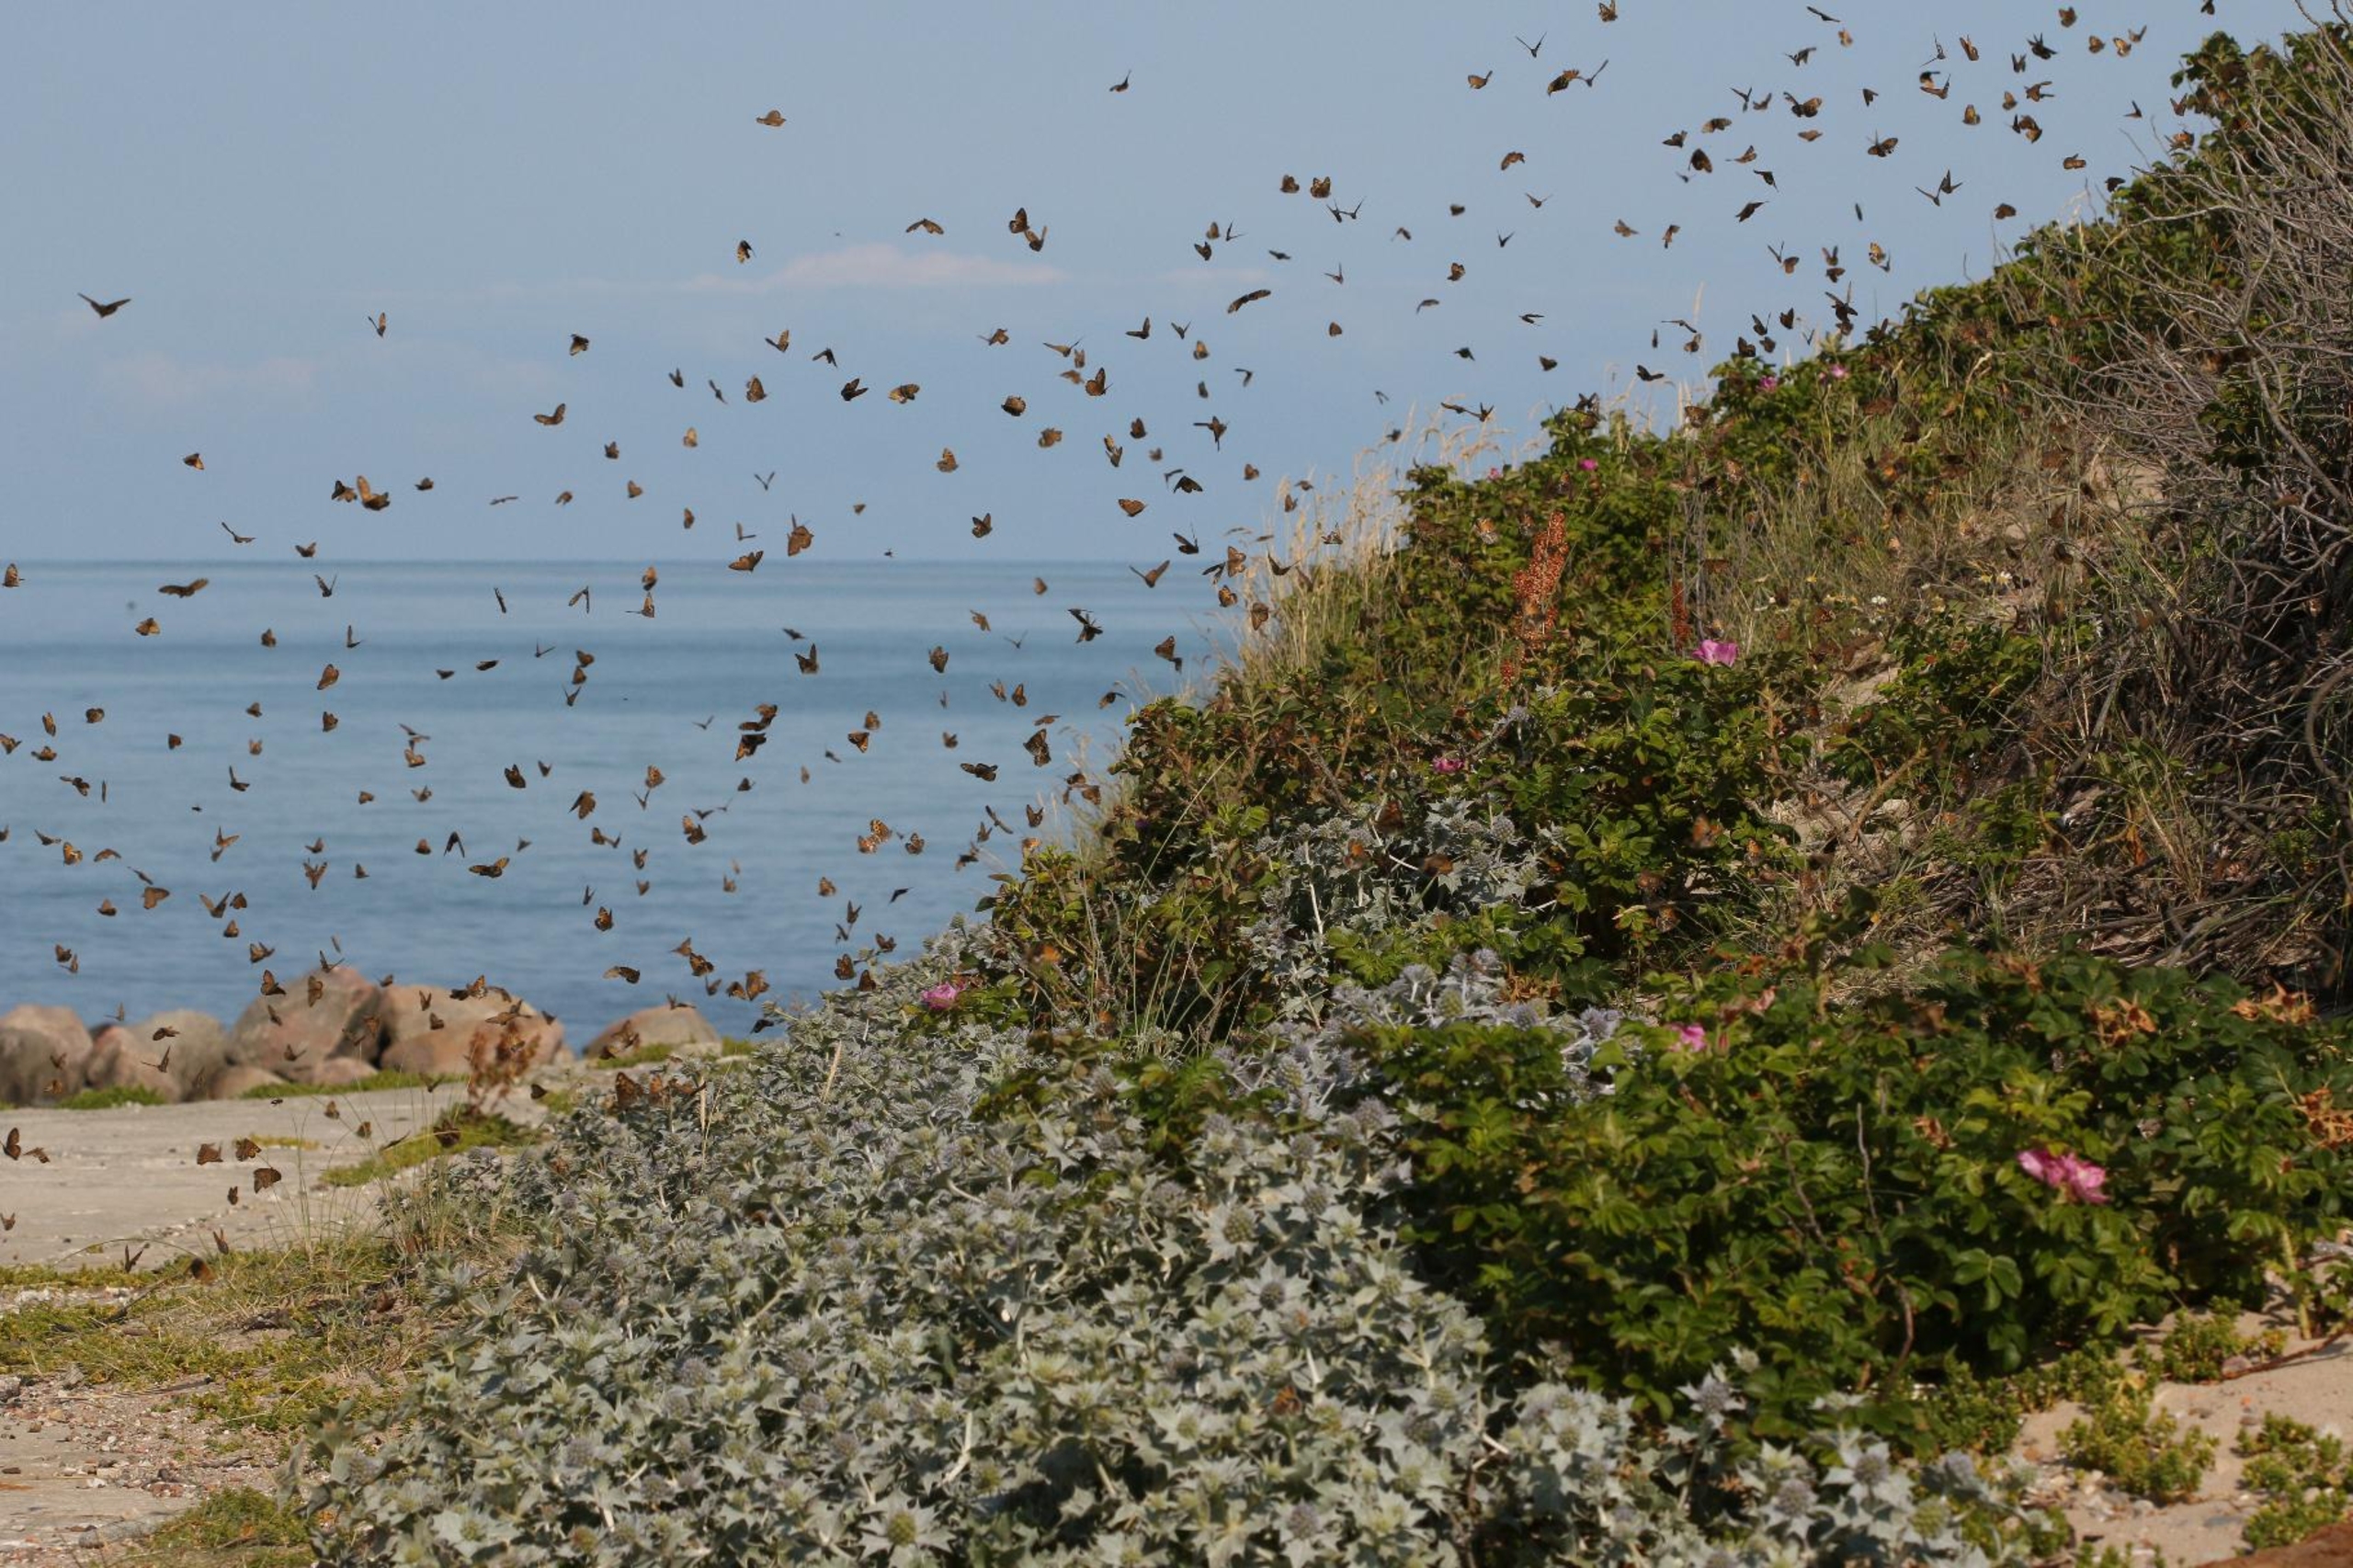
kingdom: Animalia
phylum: Arthropoda
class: Insecta
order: Lepidoptera
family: Nymphalidae
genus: Hipparchia
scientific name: Hipparchia semele
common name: Sandrandøje
